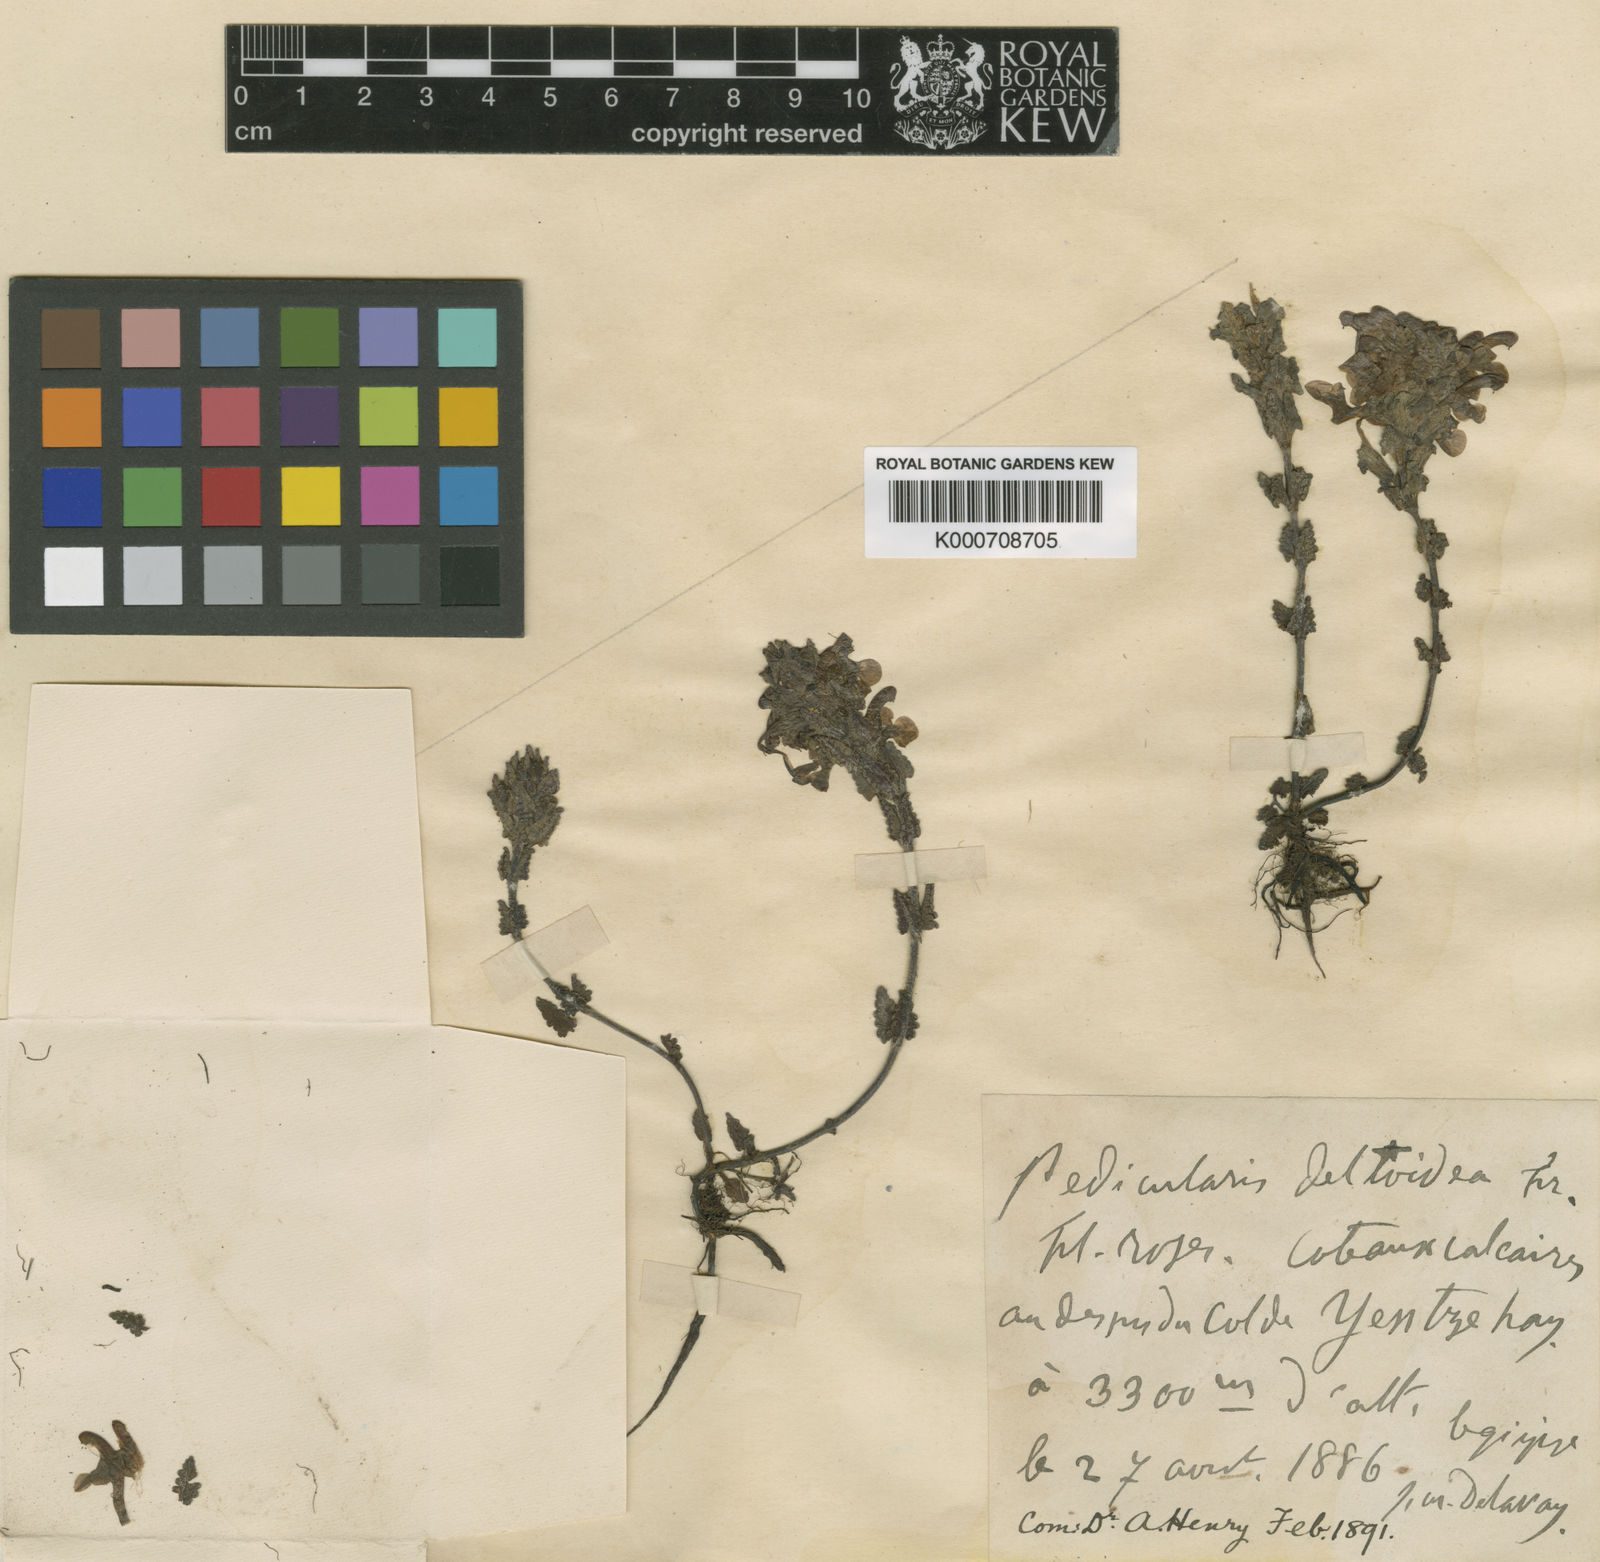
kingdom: Plantae
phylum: Tracheophyta
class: Magnoliopsida
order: Lamiales
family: Orobanchaceae
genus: Pedicularis
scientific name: Pedicularis deltoidea
